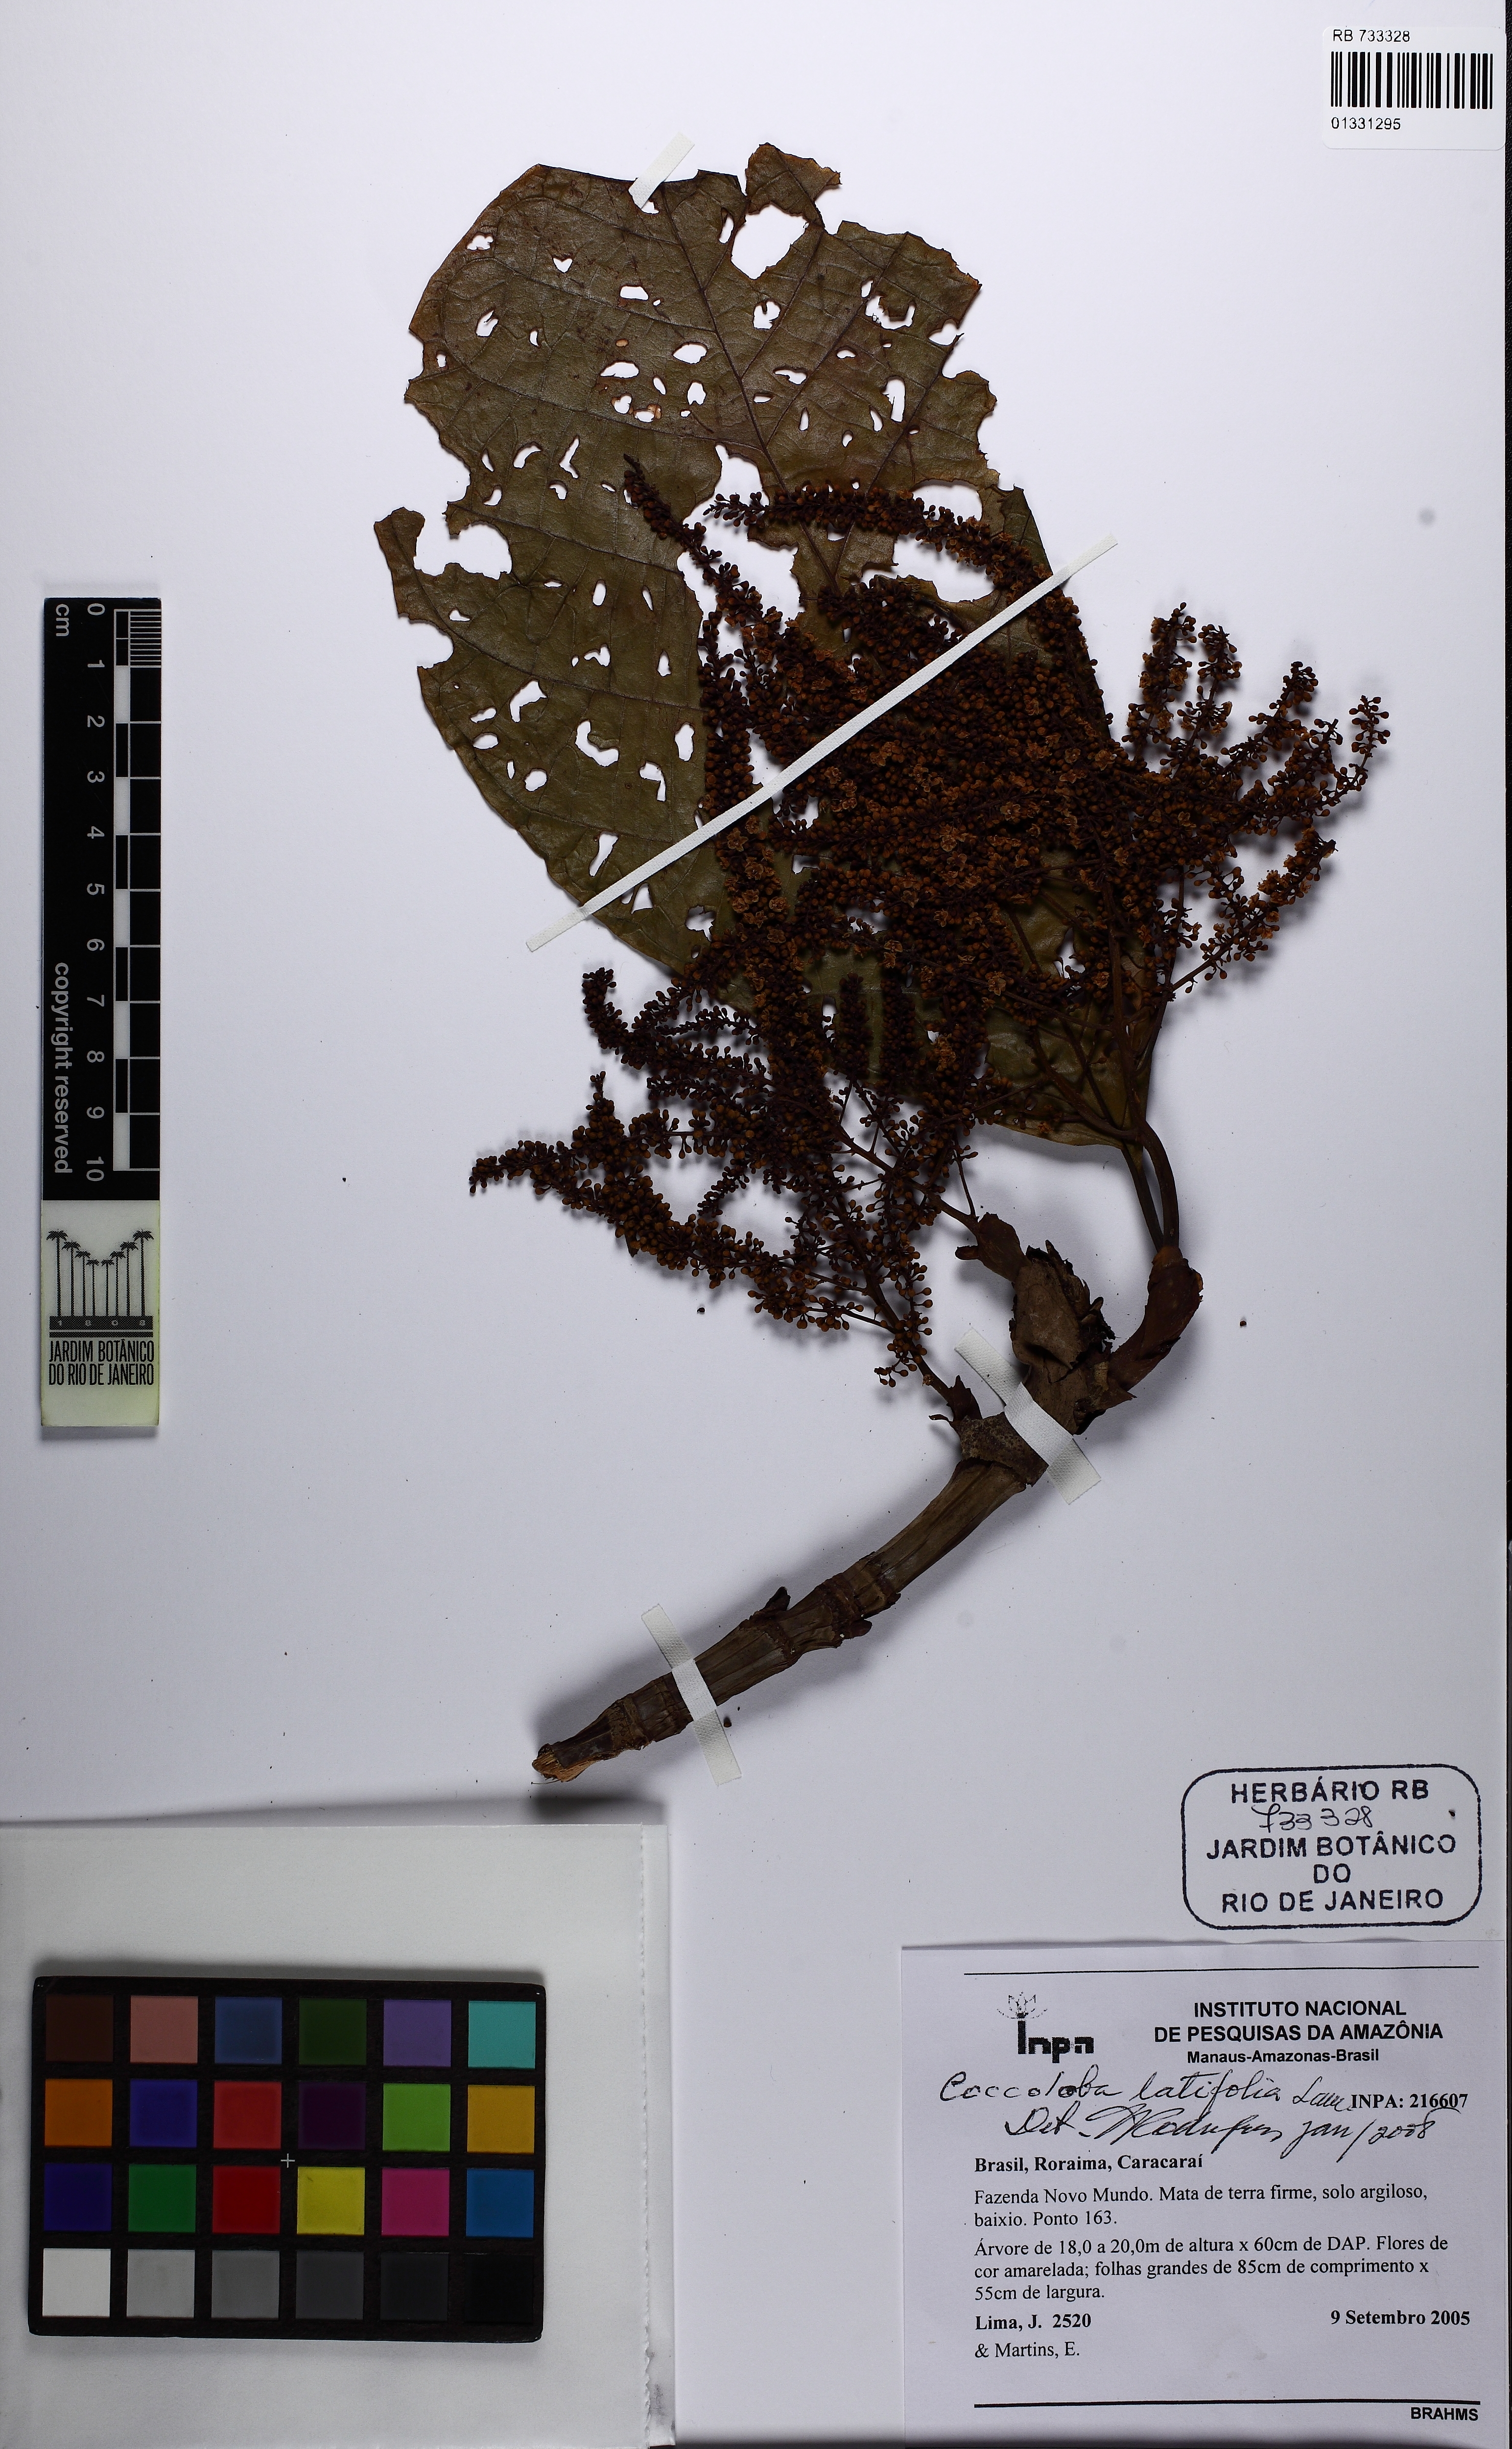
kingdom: Plantae
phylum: Tracheophyta
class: Magnoliopsida
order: Caryophyllales
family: Polygonaceae
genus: Coccoloba
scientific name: Coccoloba latifolia
